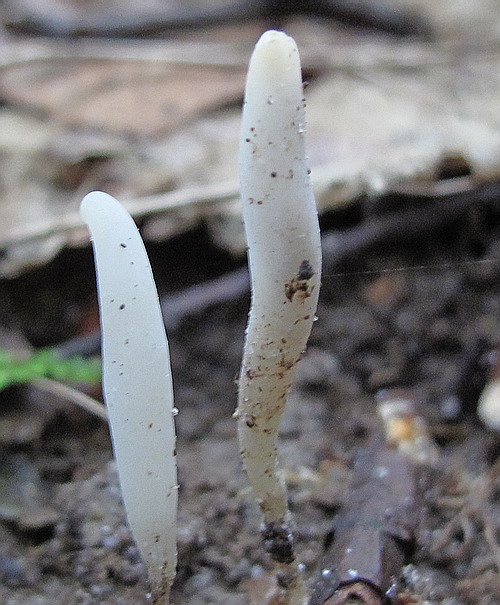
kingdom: Fungi
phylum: Basidiomycota
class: Agaricomycetes
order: Agaricales
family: Clavariaceae
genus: Clavaria
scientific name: Clavaria falcata
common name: hvid køllesvamp
